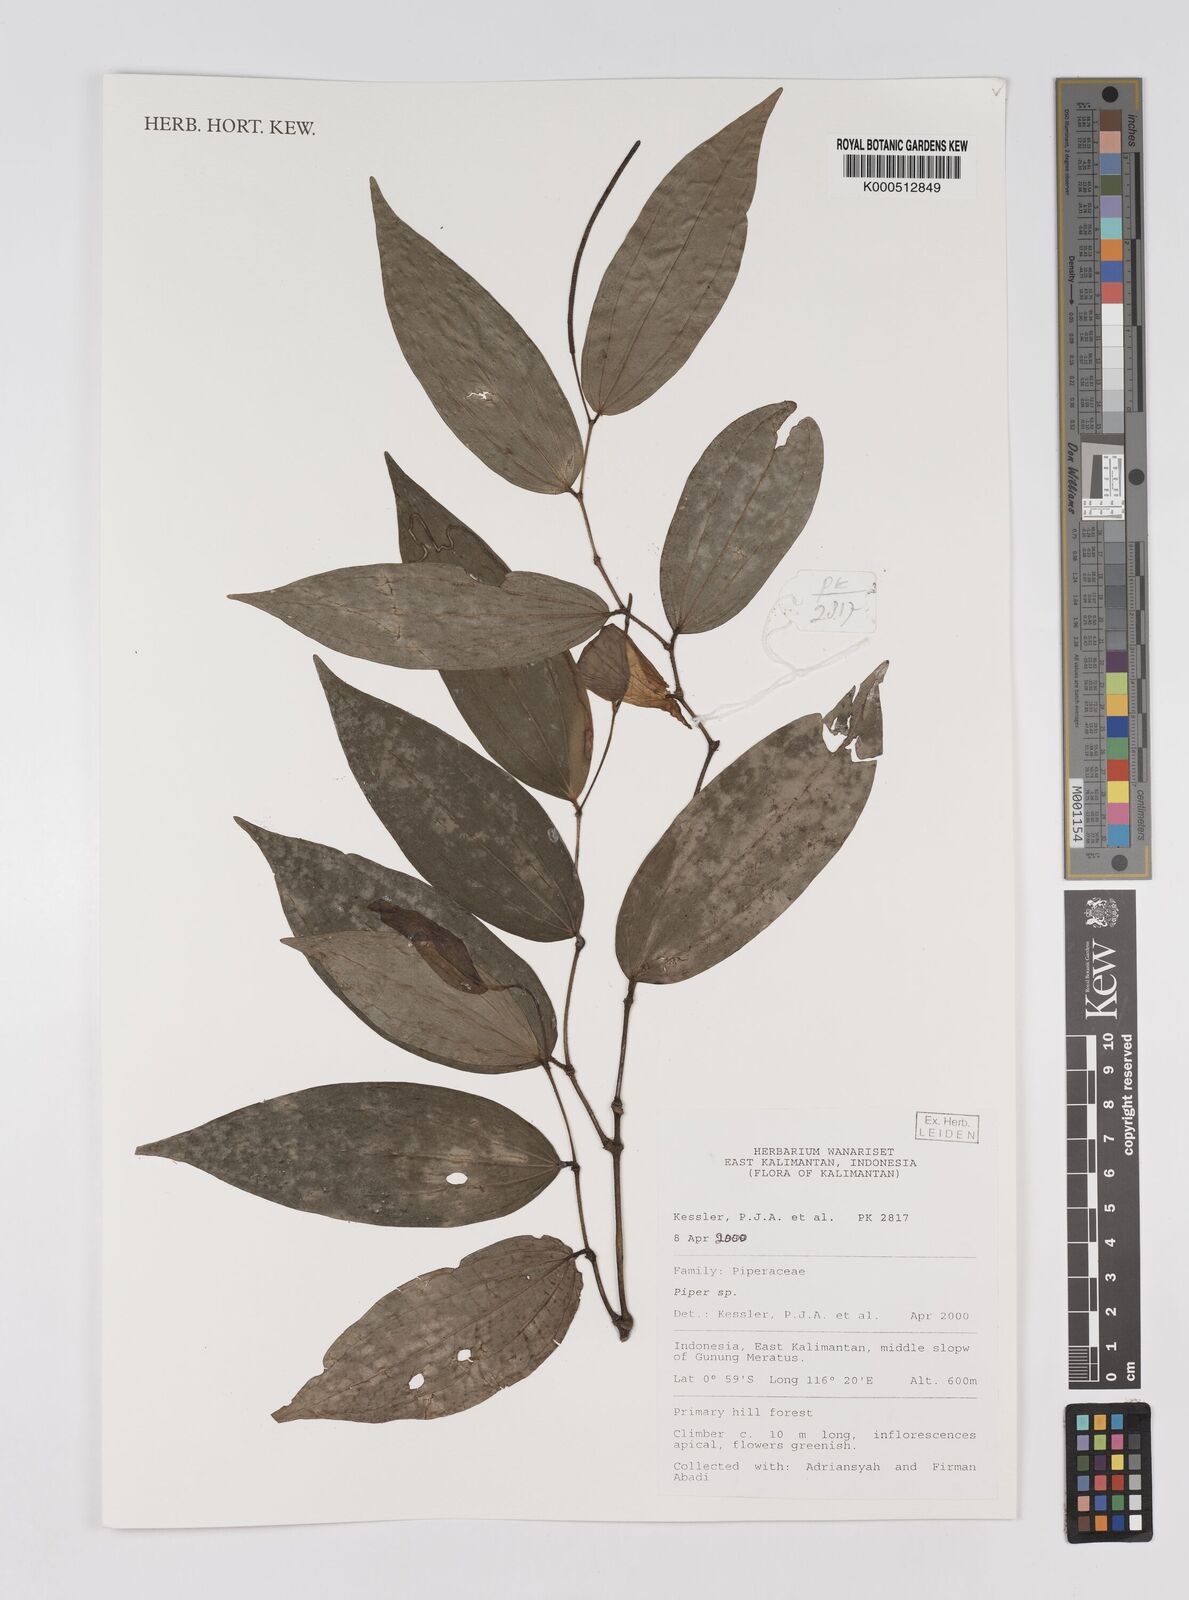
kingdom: Plantae
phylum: Tracheophyta
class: Magnoliopsida
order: Piperales
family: Piperaceae
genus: Piper
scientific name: Piper
